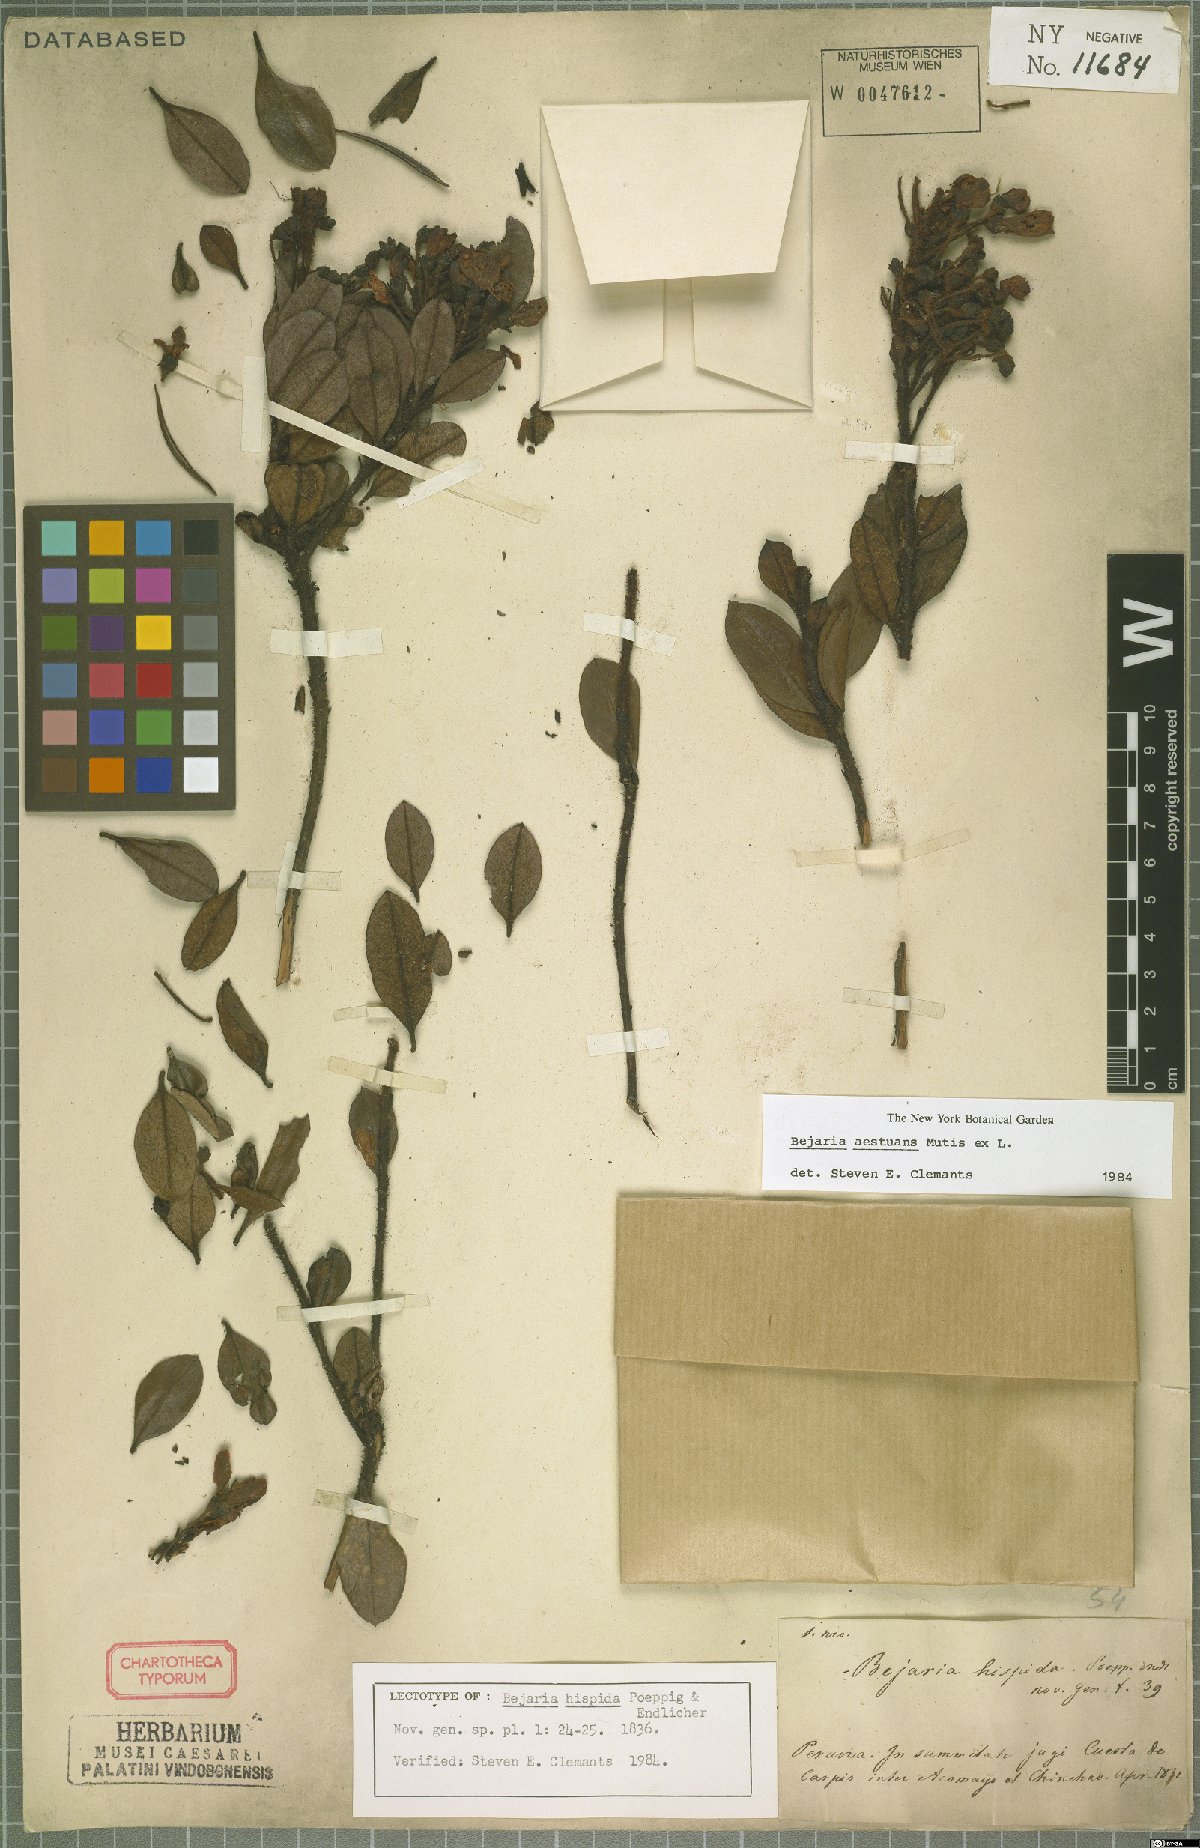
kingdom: Plantae
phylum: Tracheophyta
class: Magnoliopsida
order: Ericales
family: Ericaceae
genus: Bejaria
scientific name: Bejaria aestuans
